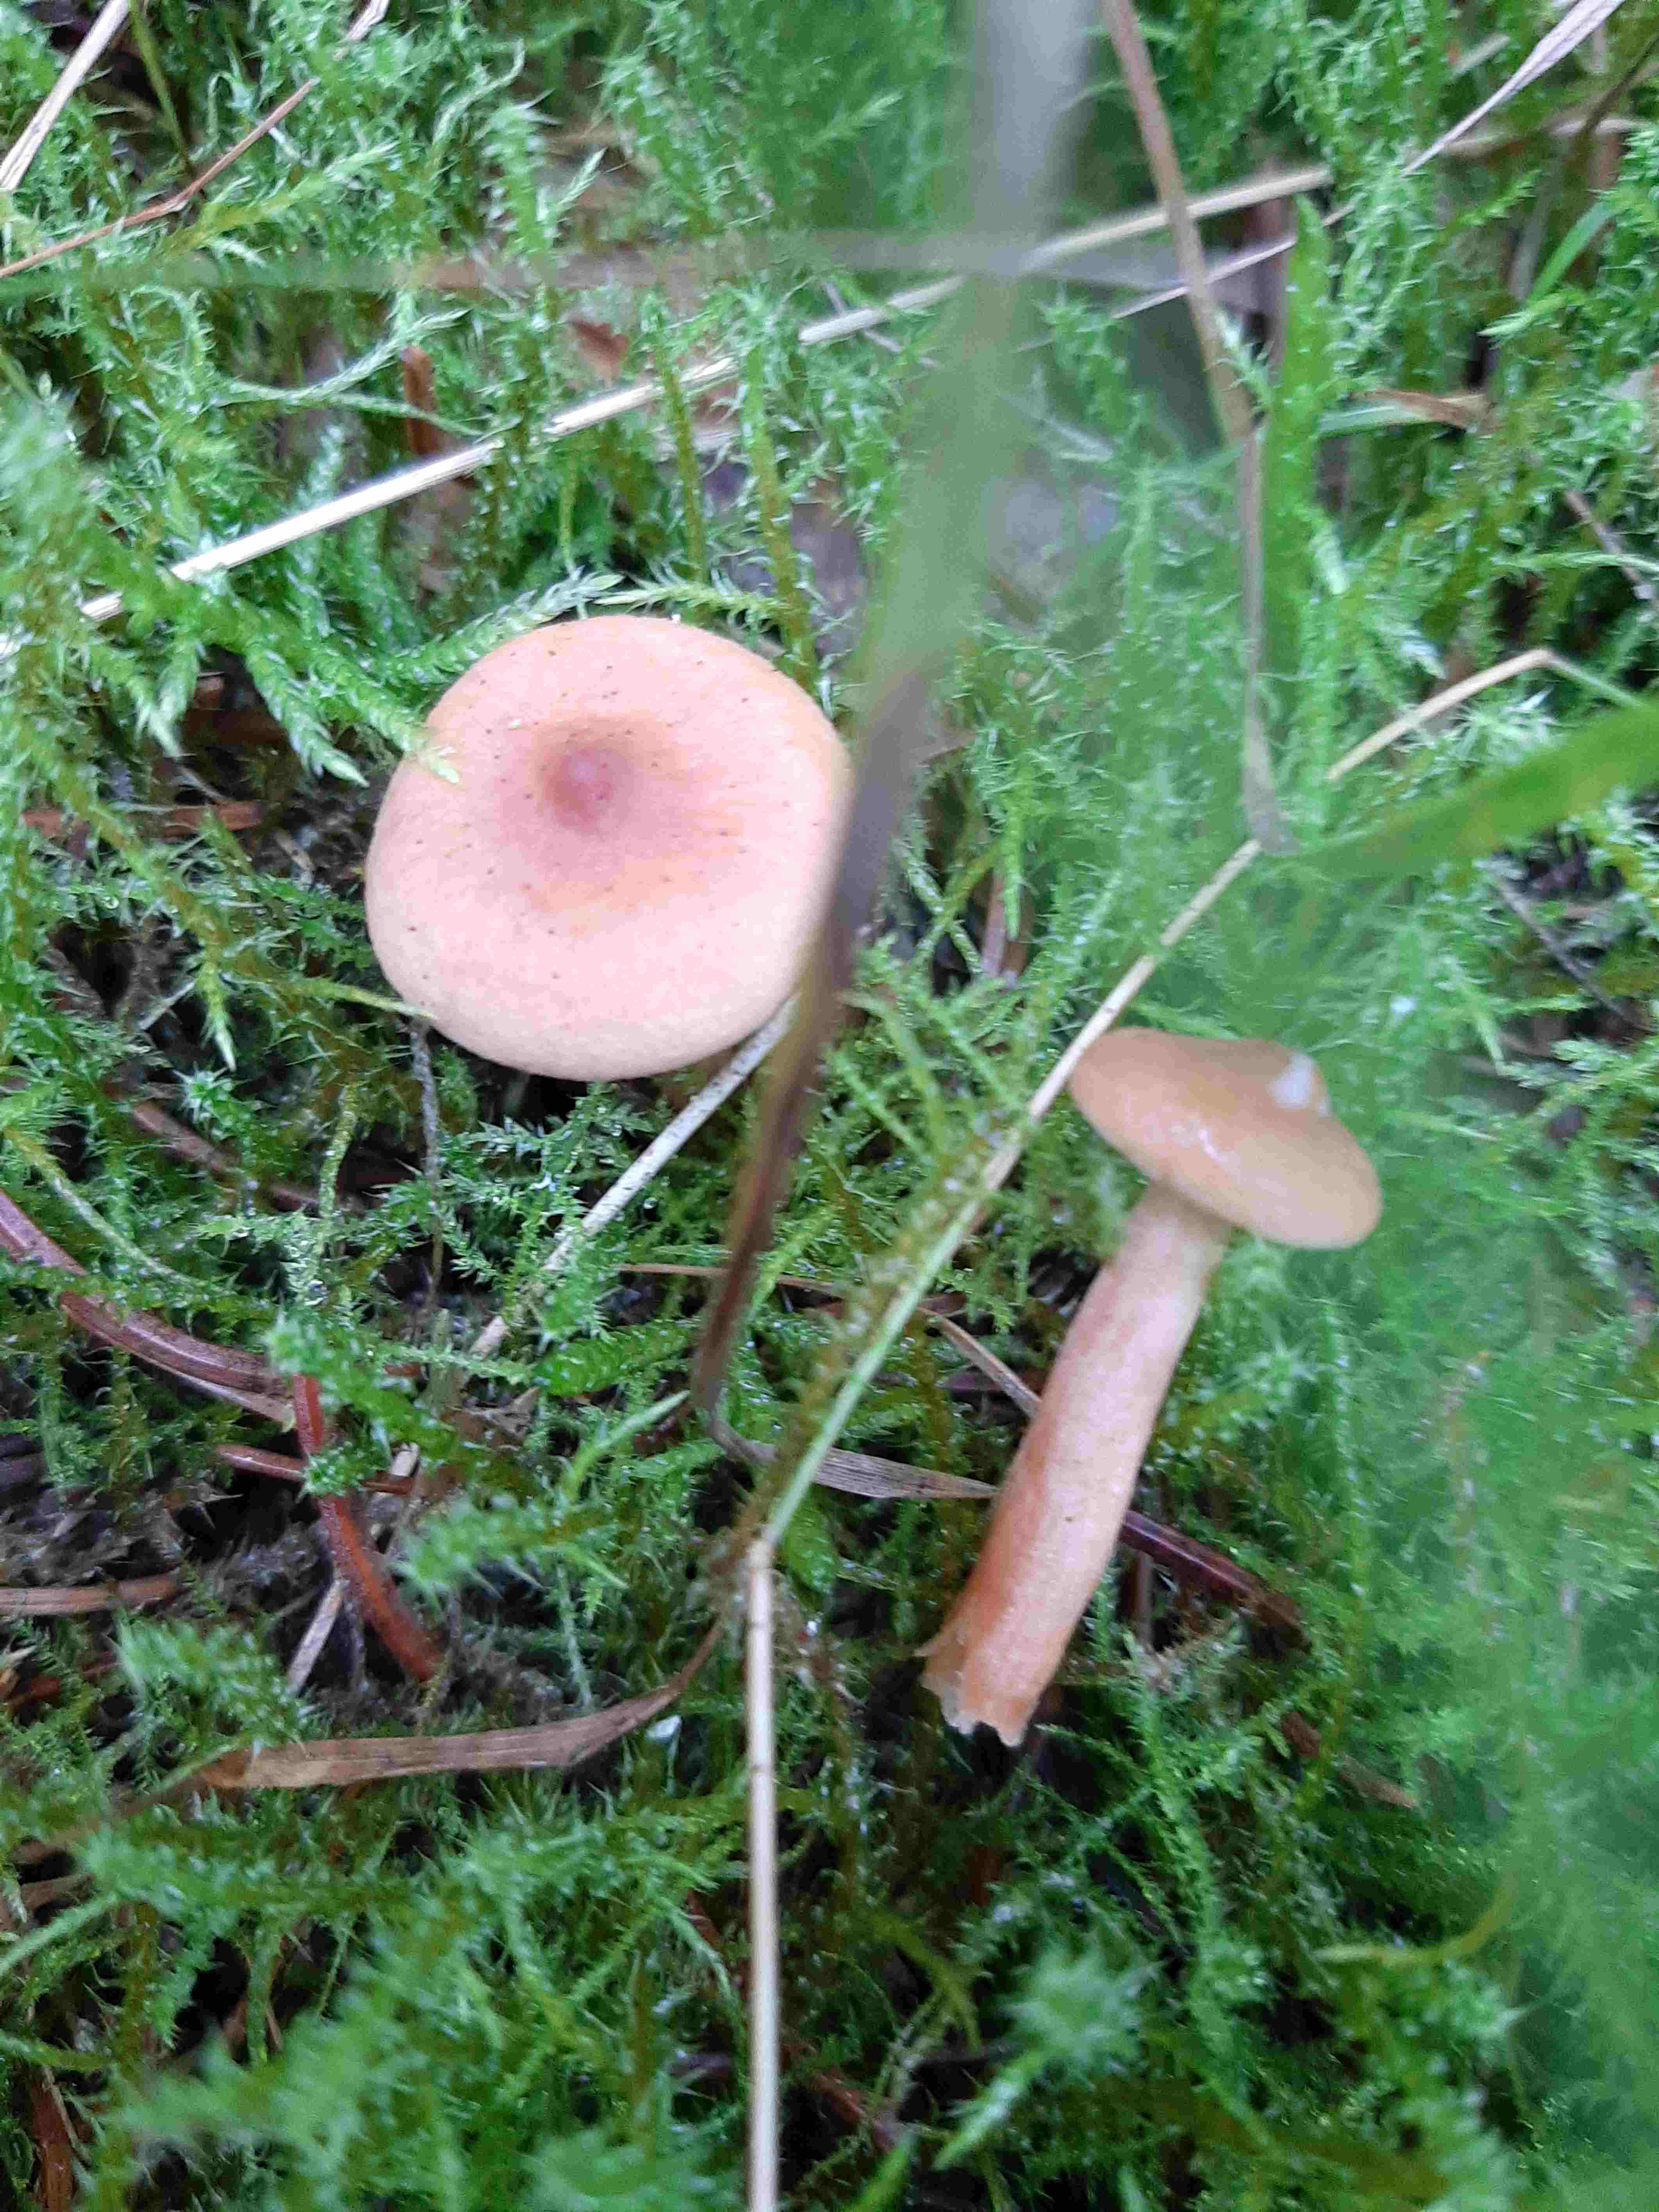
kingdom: Fungi
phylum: Basidiomycota
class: Agaricomycetes
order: Russulales
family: Russulaceae
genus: Lactarius
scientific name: Lactarius tabidus
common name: rynket mælkehat
